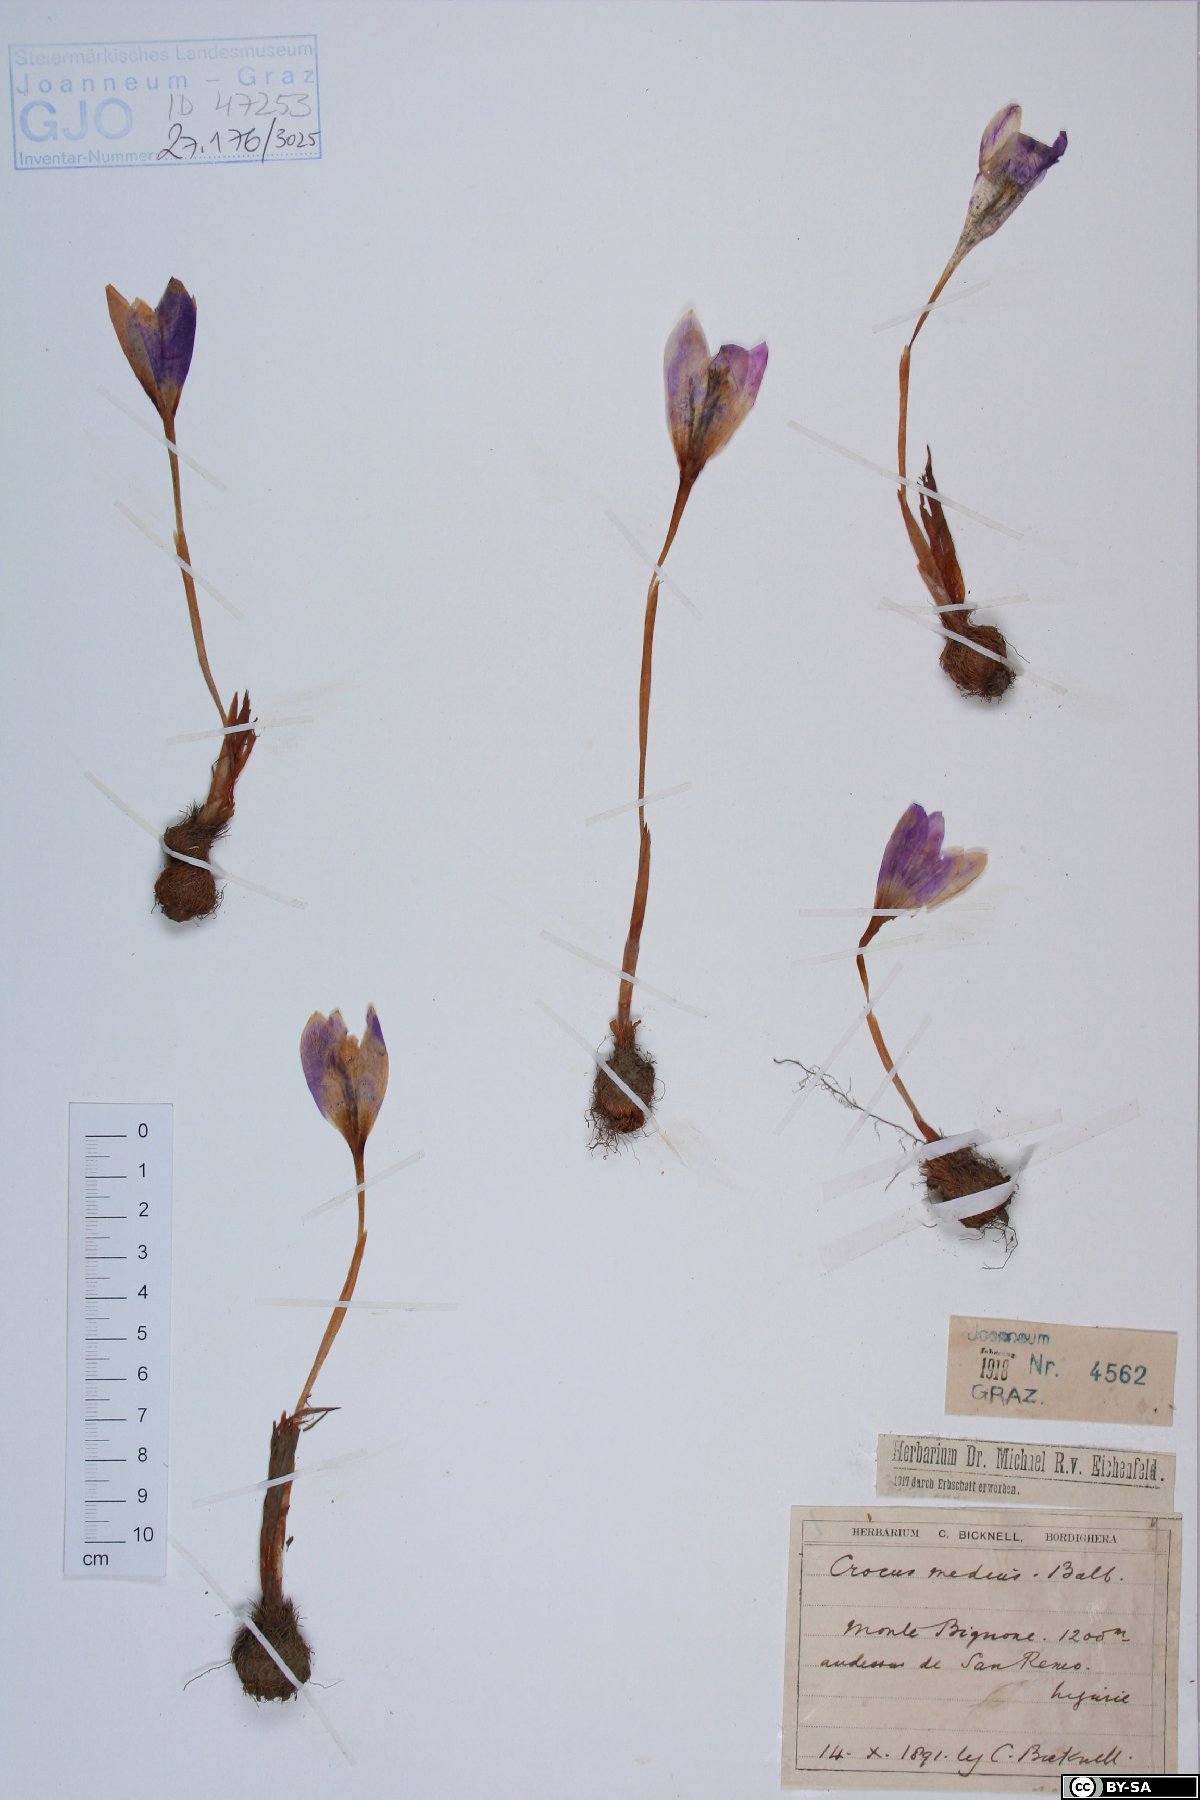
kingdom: Plantae
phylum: Tracheophyta
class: Liliopsida
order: Asparagales
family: Iridaceae
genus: Crocus
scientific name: Crocus nudiflorus
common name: Autumn crocus
